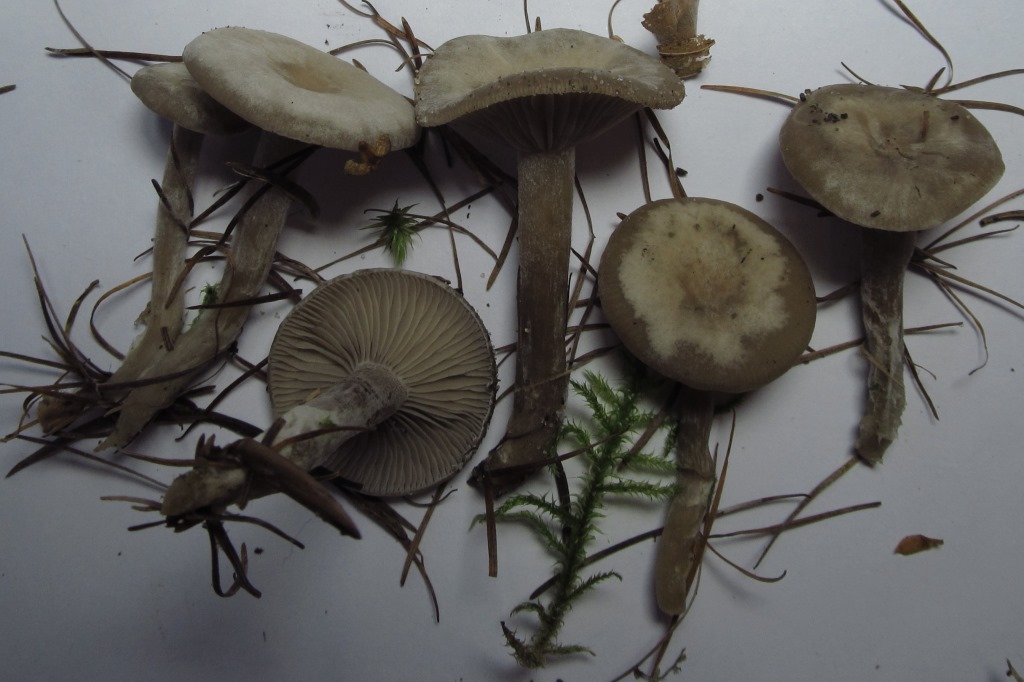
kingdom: Fungi
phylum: Basidiomycota
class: Agaricomycetes
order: Agaricales
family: Tricholomataceae
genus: Clitocybe
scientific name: Clitocybe vibecina
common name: randstribet tragthat
